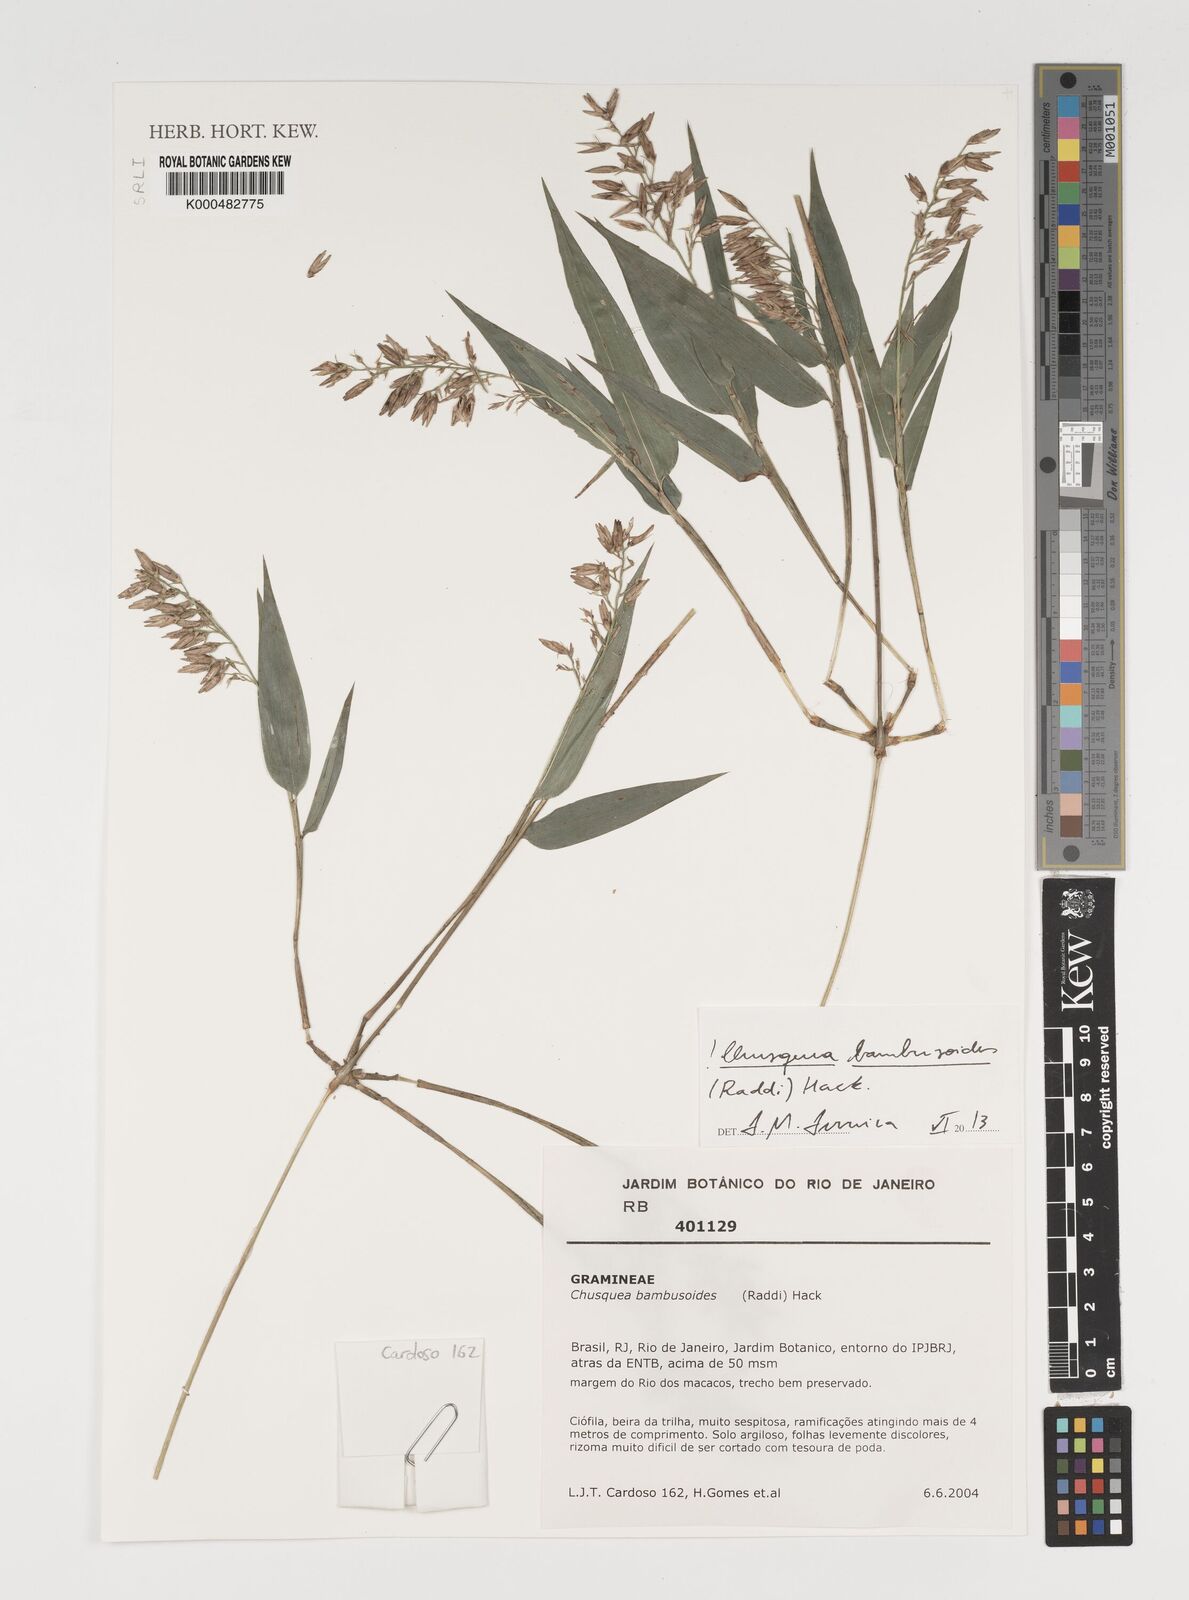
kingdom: Plantae
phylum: Tracheophyta
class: Liliopsida
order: Poales
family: Poaceae
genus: Chusquea
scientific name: Chusquea bambusoides
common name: Brazil scrambling bamboo
